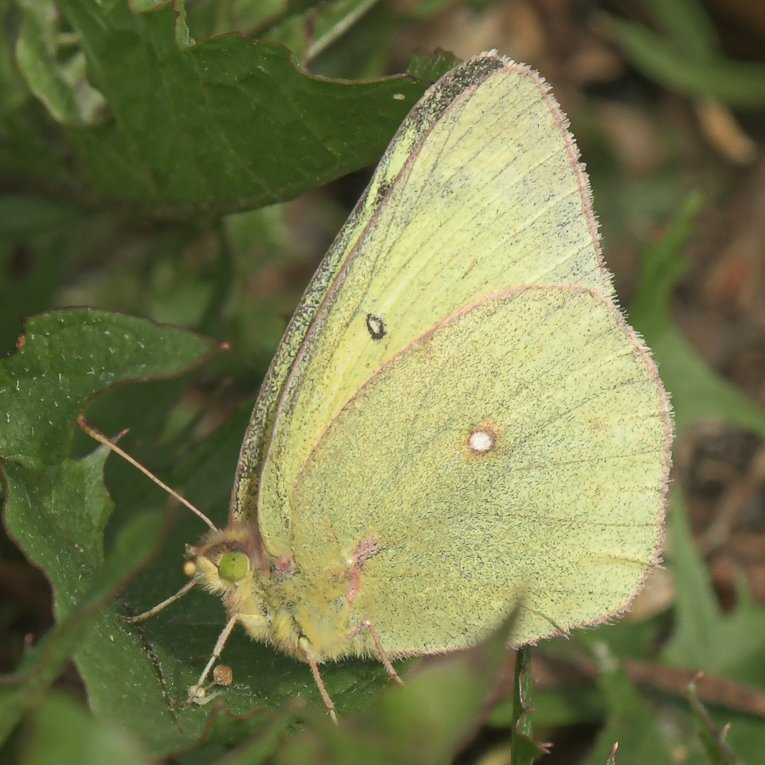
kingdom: Animalia
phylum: Arthropoda
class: Insecta
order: Lepidoptera
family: Pieridae
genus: Colias
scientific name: Colias philodice
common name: Clouded Sulphur
